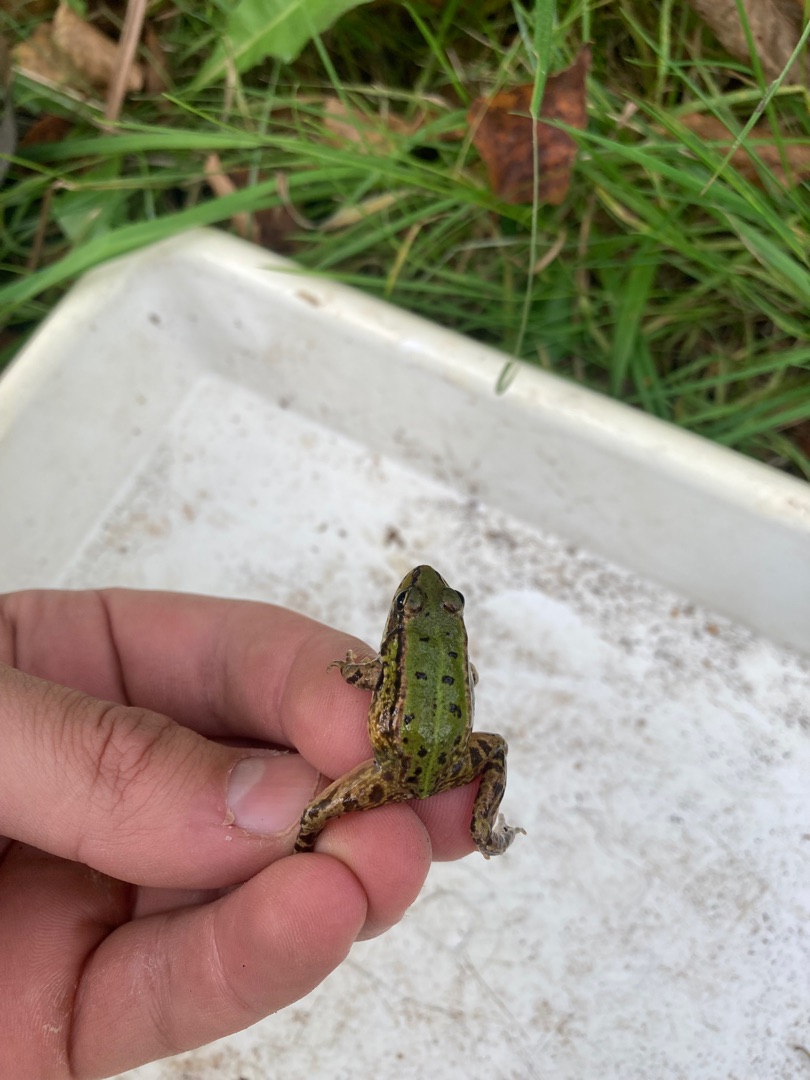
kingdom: Animalia
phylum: Chordata
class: Amphibia
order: Anura
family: Ranidae
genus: Pelophylax
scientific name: Pelophylax lessonae
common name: Grøn frø
